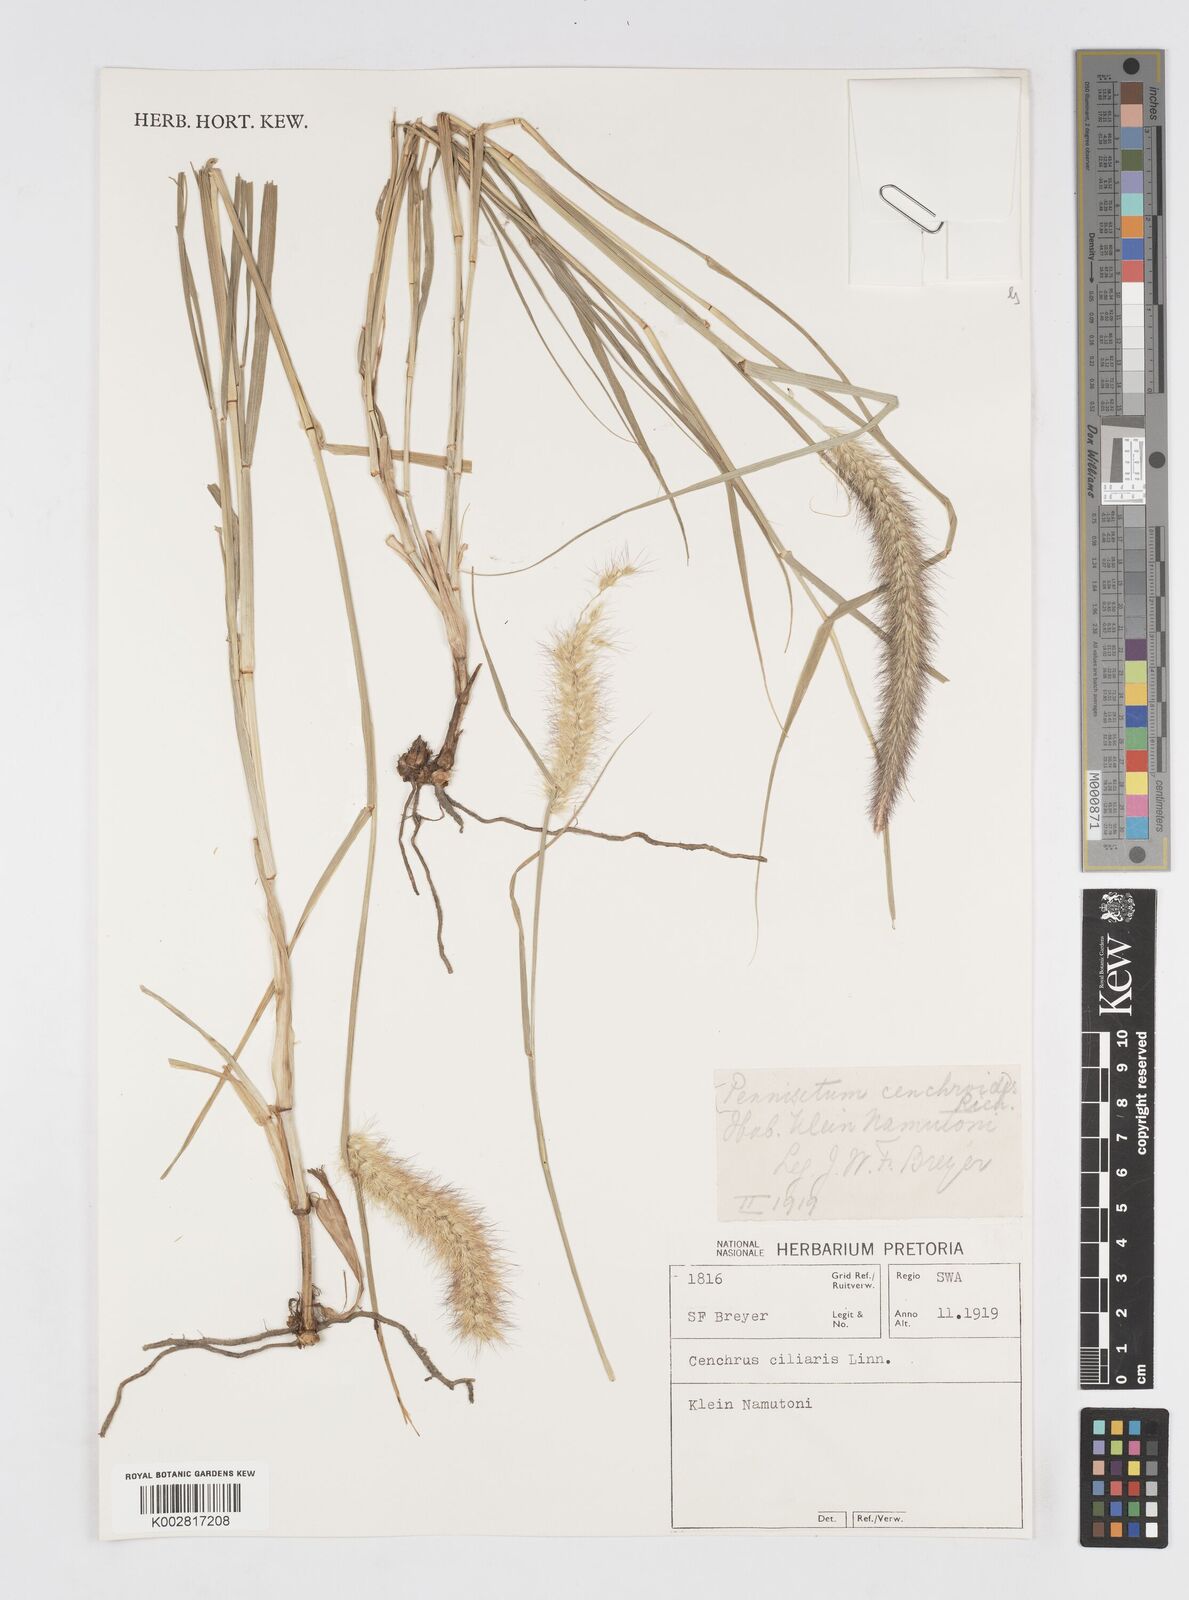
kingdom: Plantae
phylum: Tracheophyta
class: Liliopsida
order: Poales
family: Poaceae
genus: Cenchrus
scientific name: Cenchrus ciliaris
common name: Buffelgrass
